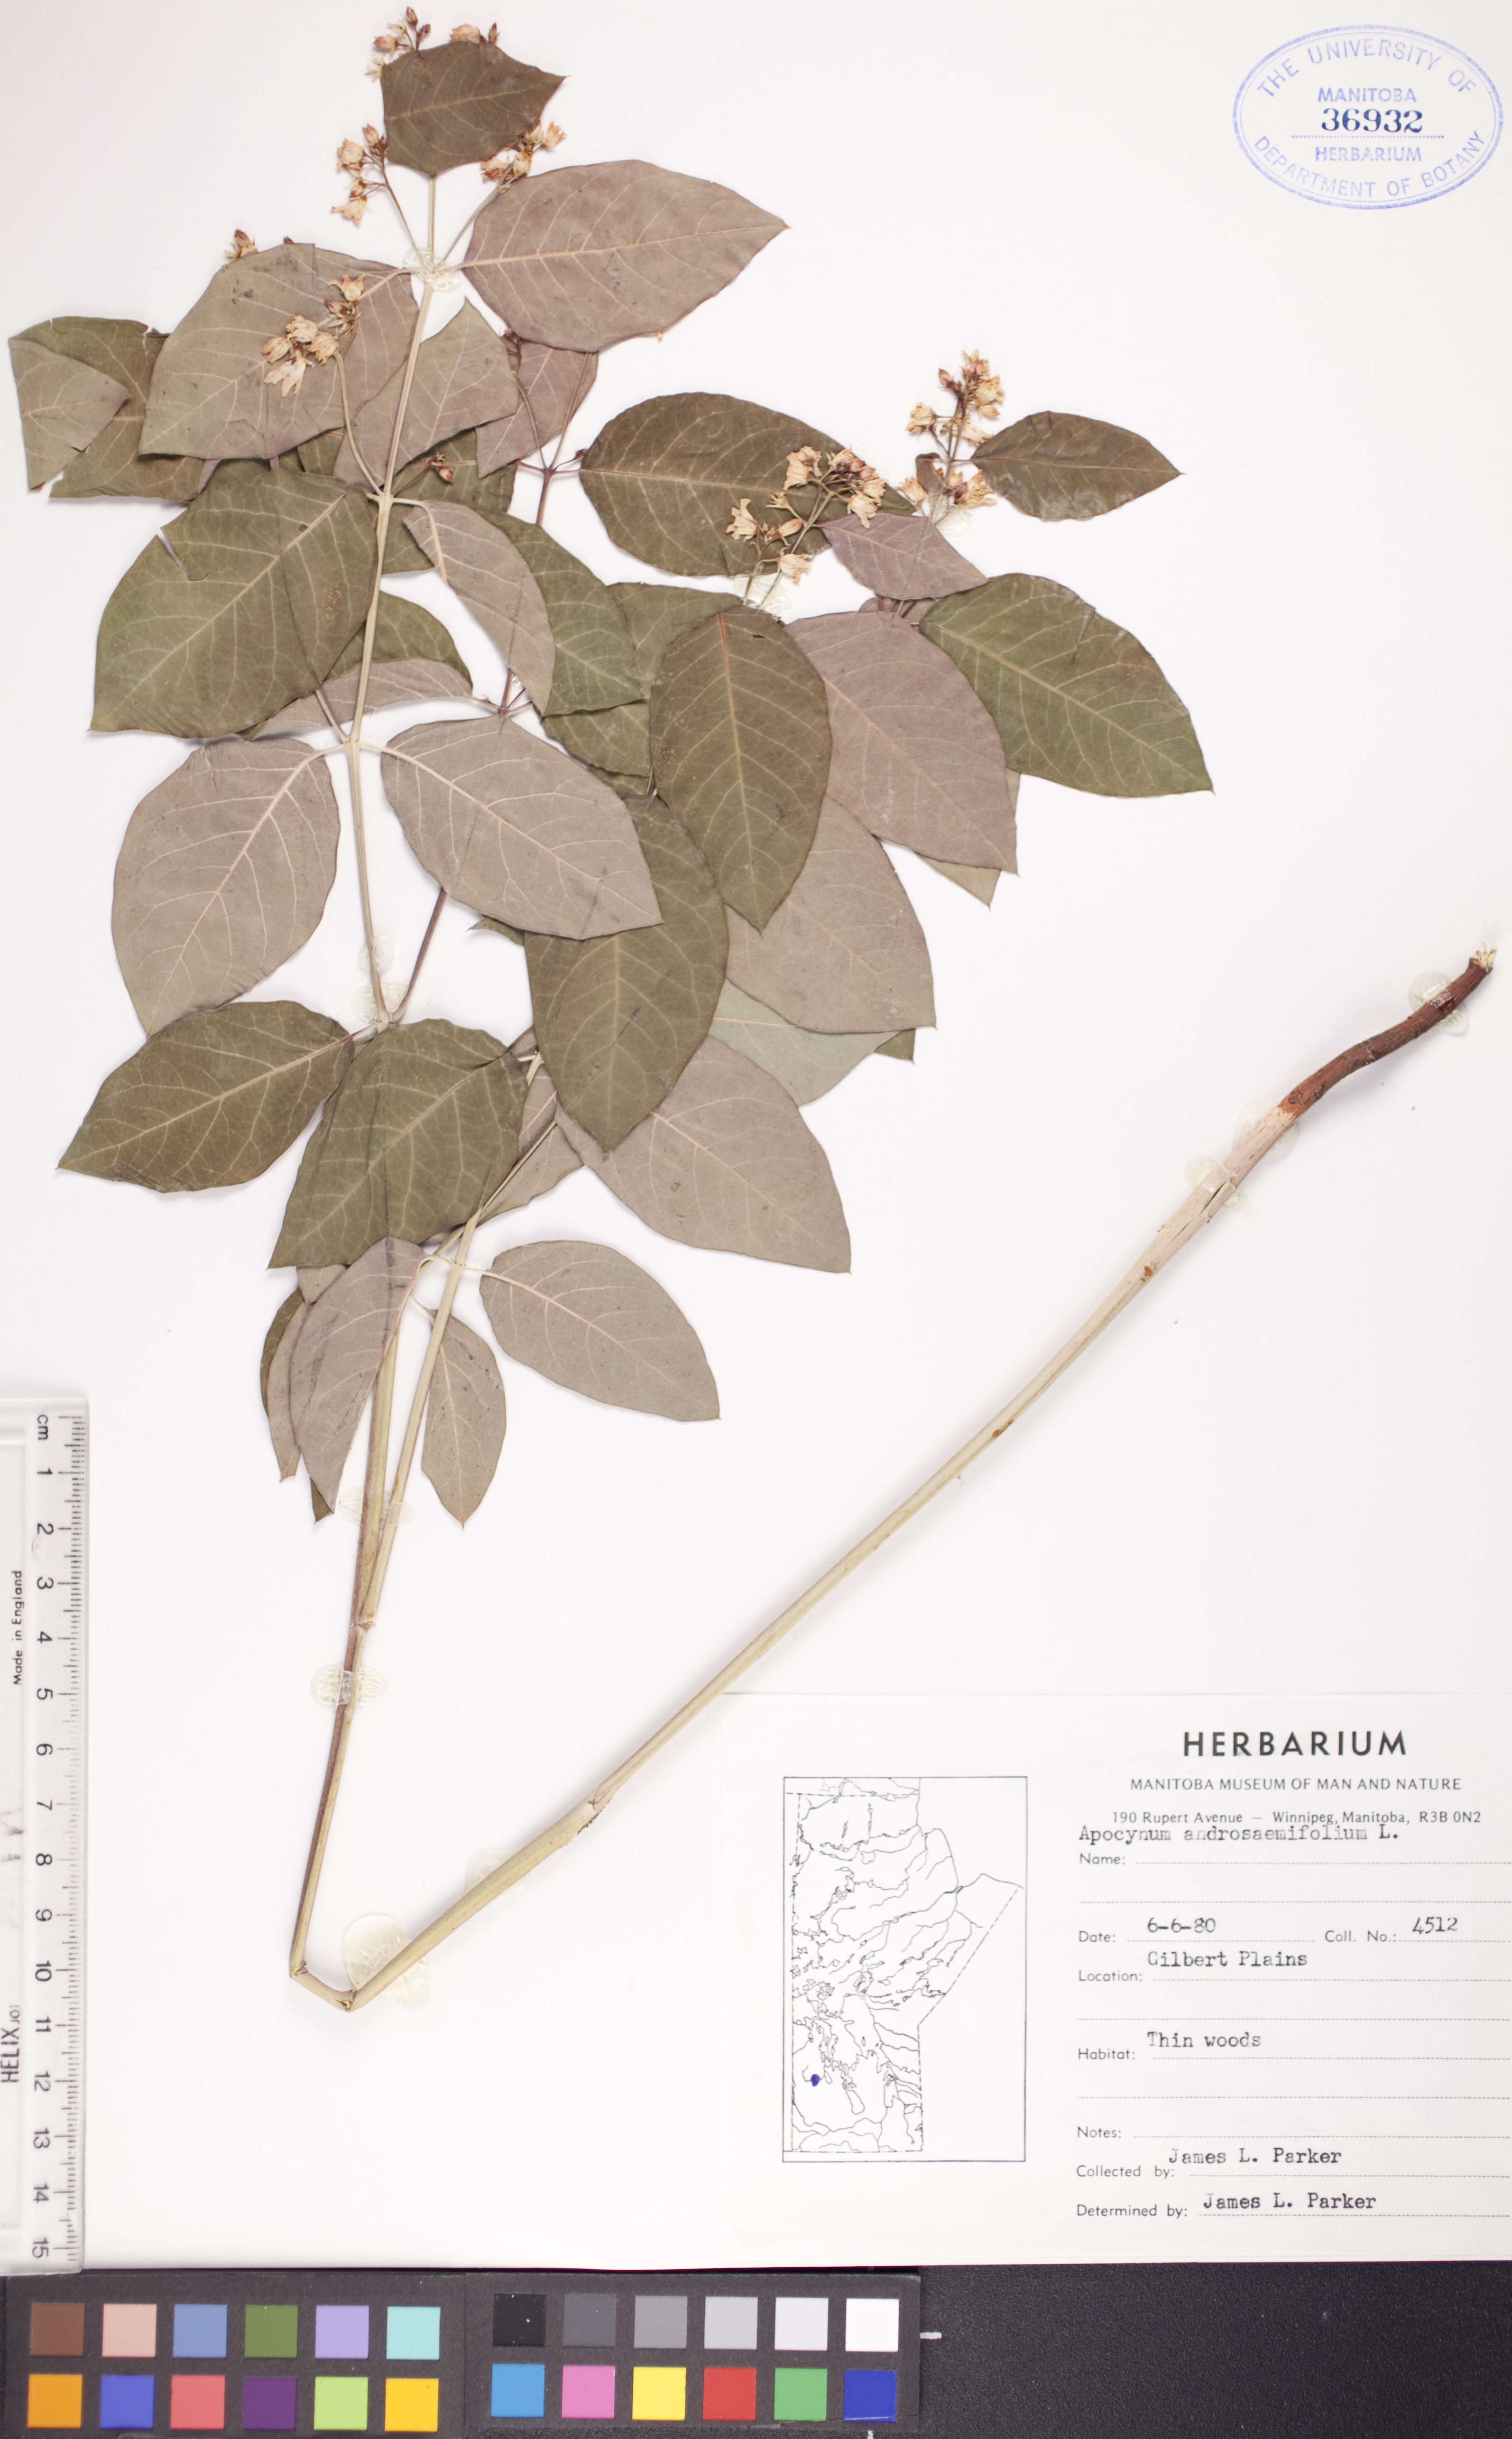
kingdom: Plantae
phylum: Tracheophyta
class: Magnoliopsida
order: Gentianales
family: Apocynaceae
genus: Apocynum
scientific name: Apocynum androsaemifolium
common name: Spreading dogbane
